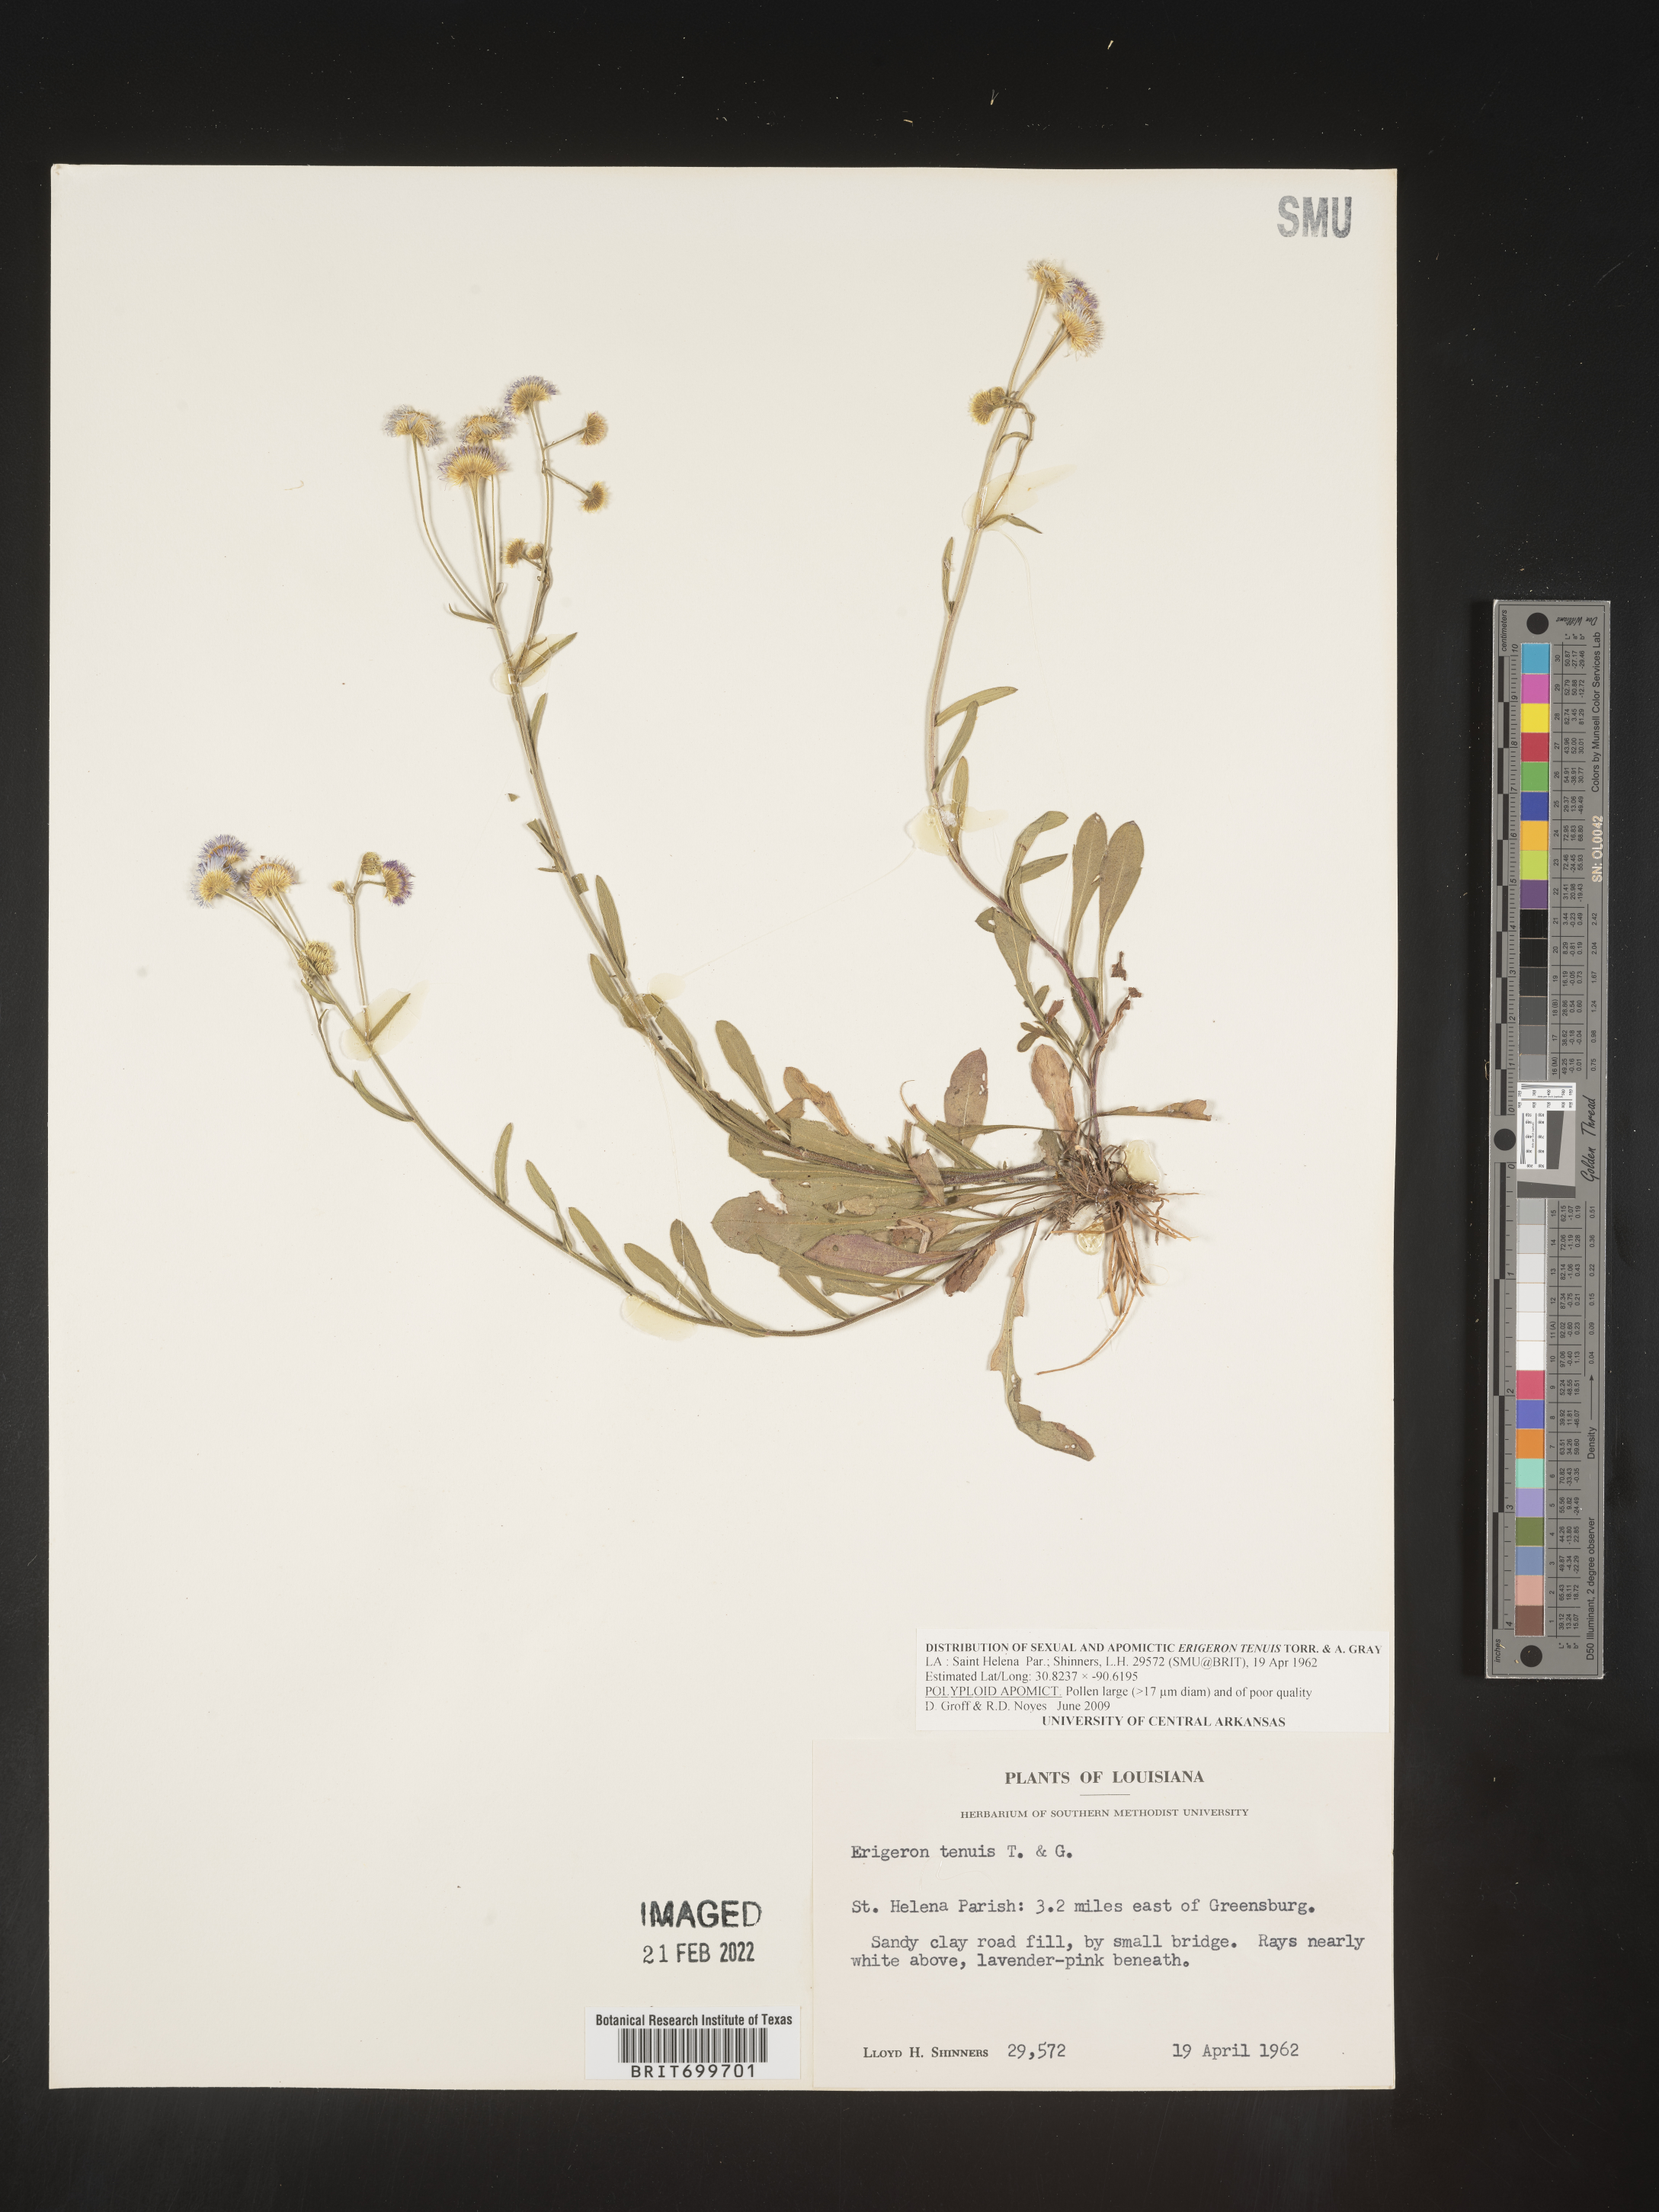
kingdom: Plantae
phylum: Tracheophyta
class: Magnoliopsida
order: Asterales
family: Asteraceae
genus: Erigeron
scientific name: Erigeron tenuis
